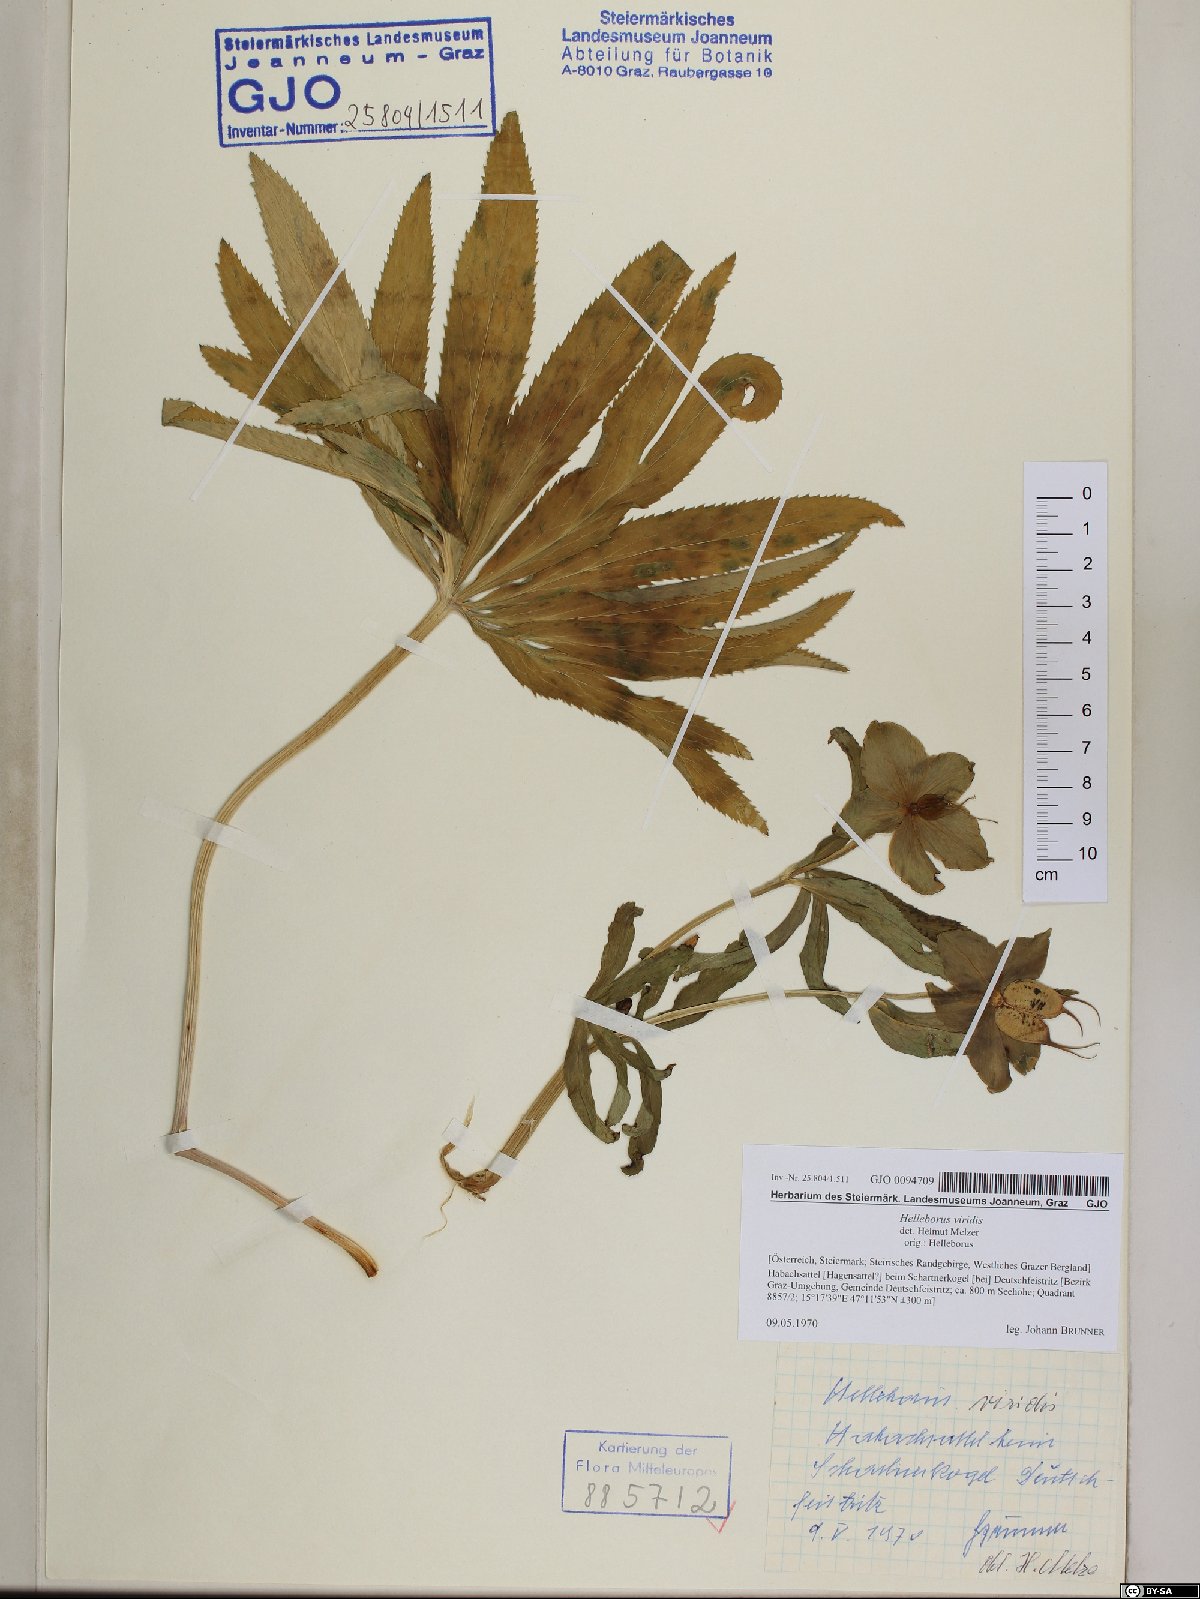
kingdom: Plantae
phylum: Tracheophyta
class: Magnoliopsida
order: Ranunculales
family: Ranunculaceae
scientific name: Ranunculaceae
